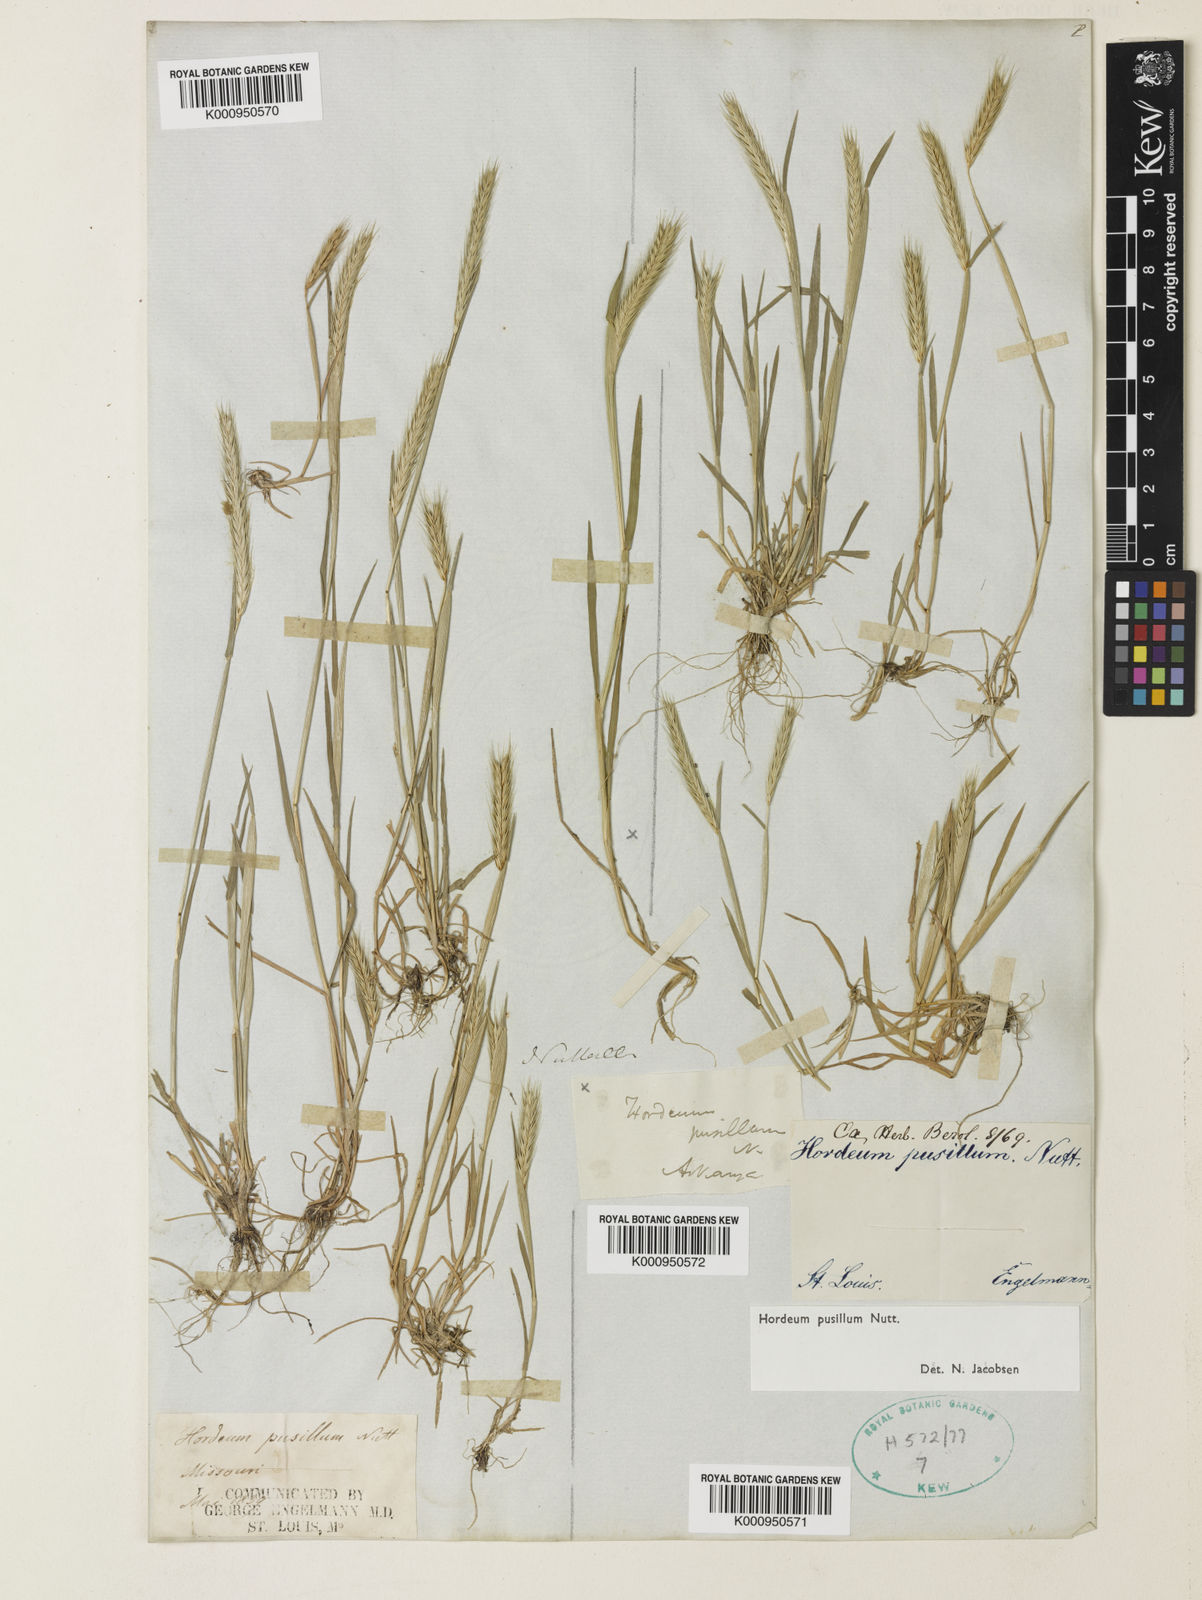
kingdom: Plantae
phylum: Tracheophyta
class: Liliopsida
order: Poales
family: Poaceae
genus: Hordeum
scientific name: Hordeum pusillum
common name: Little barley
